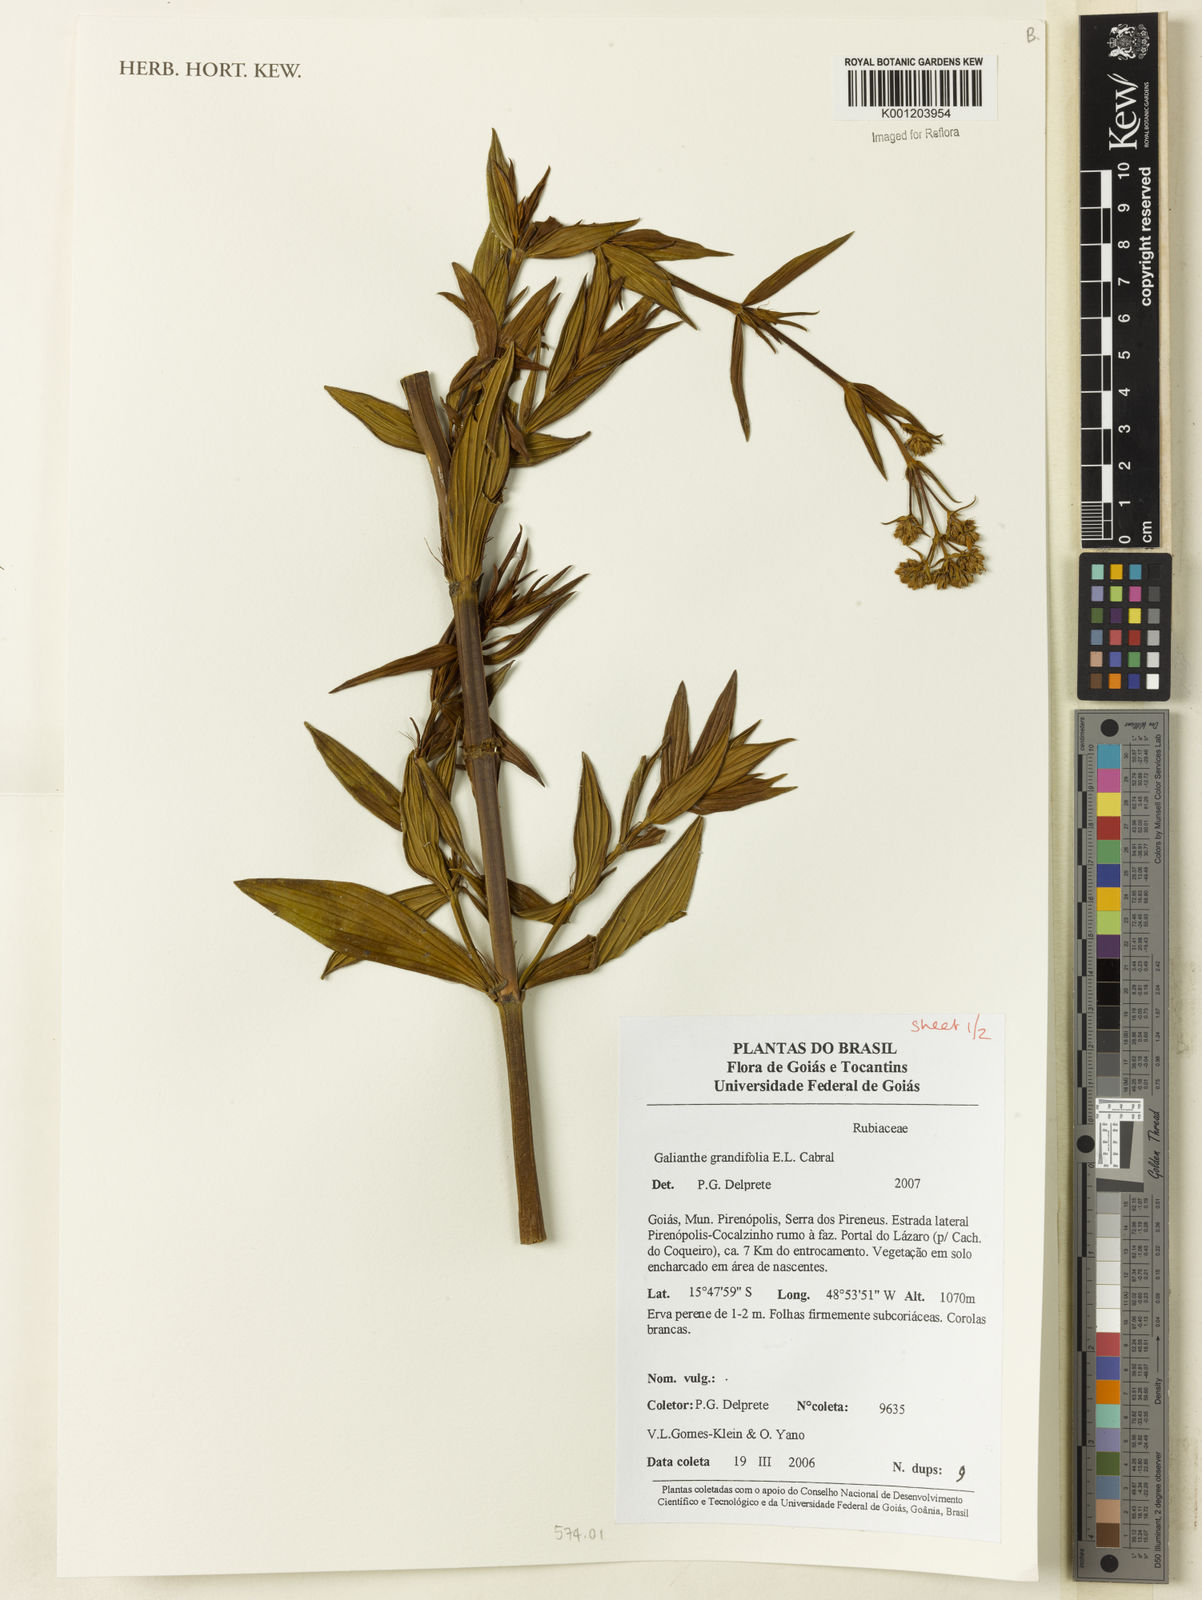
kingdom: Plantae
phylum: Tracheophyta
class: Magnoliopsida
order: Gentianales
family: Rubiaceae
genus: Galianthe
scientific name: Galianthe grandifolia
